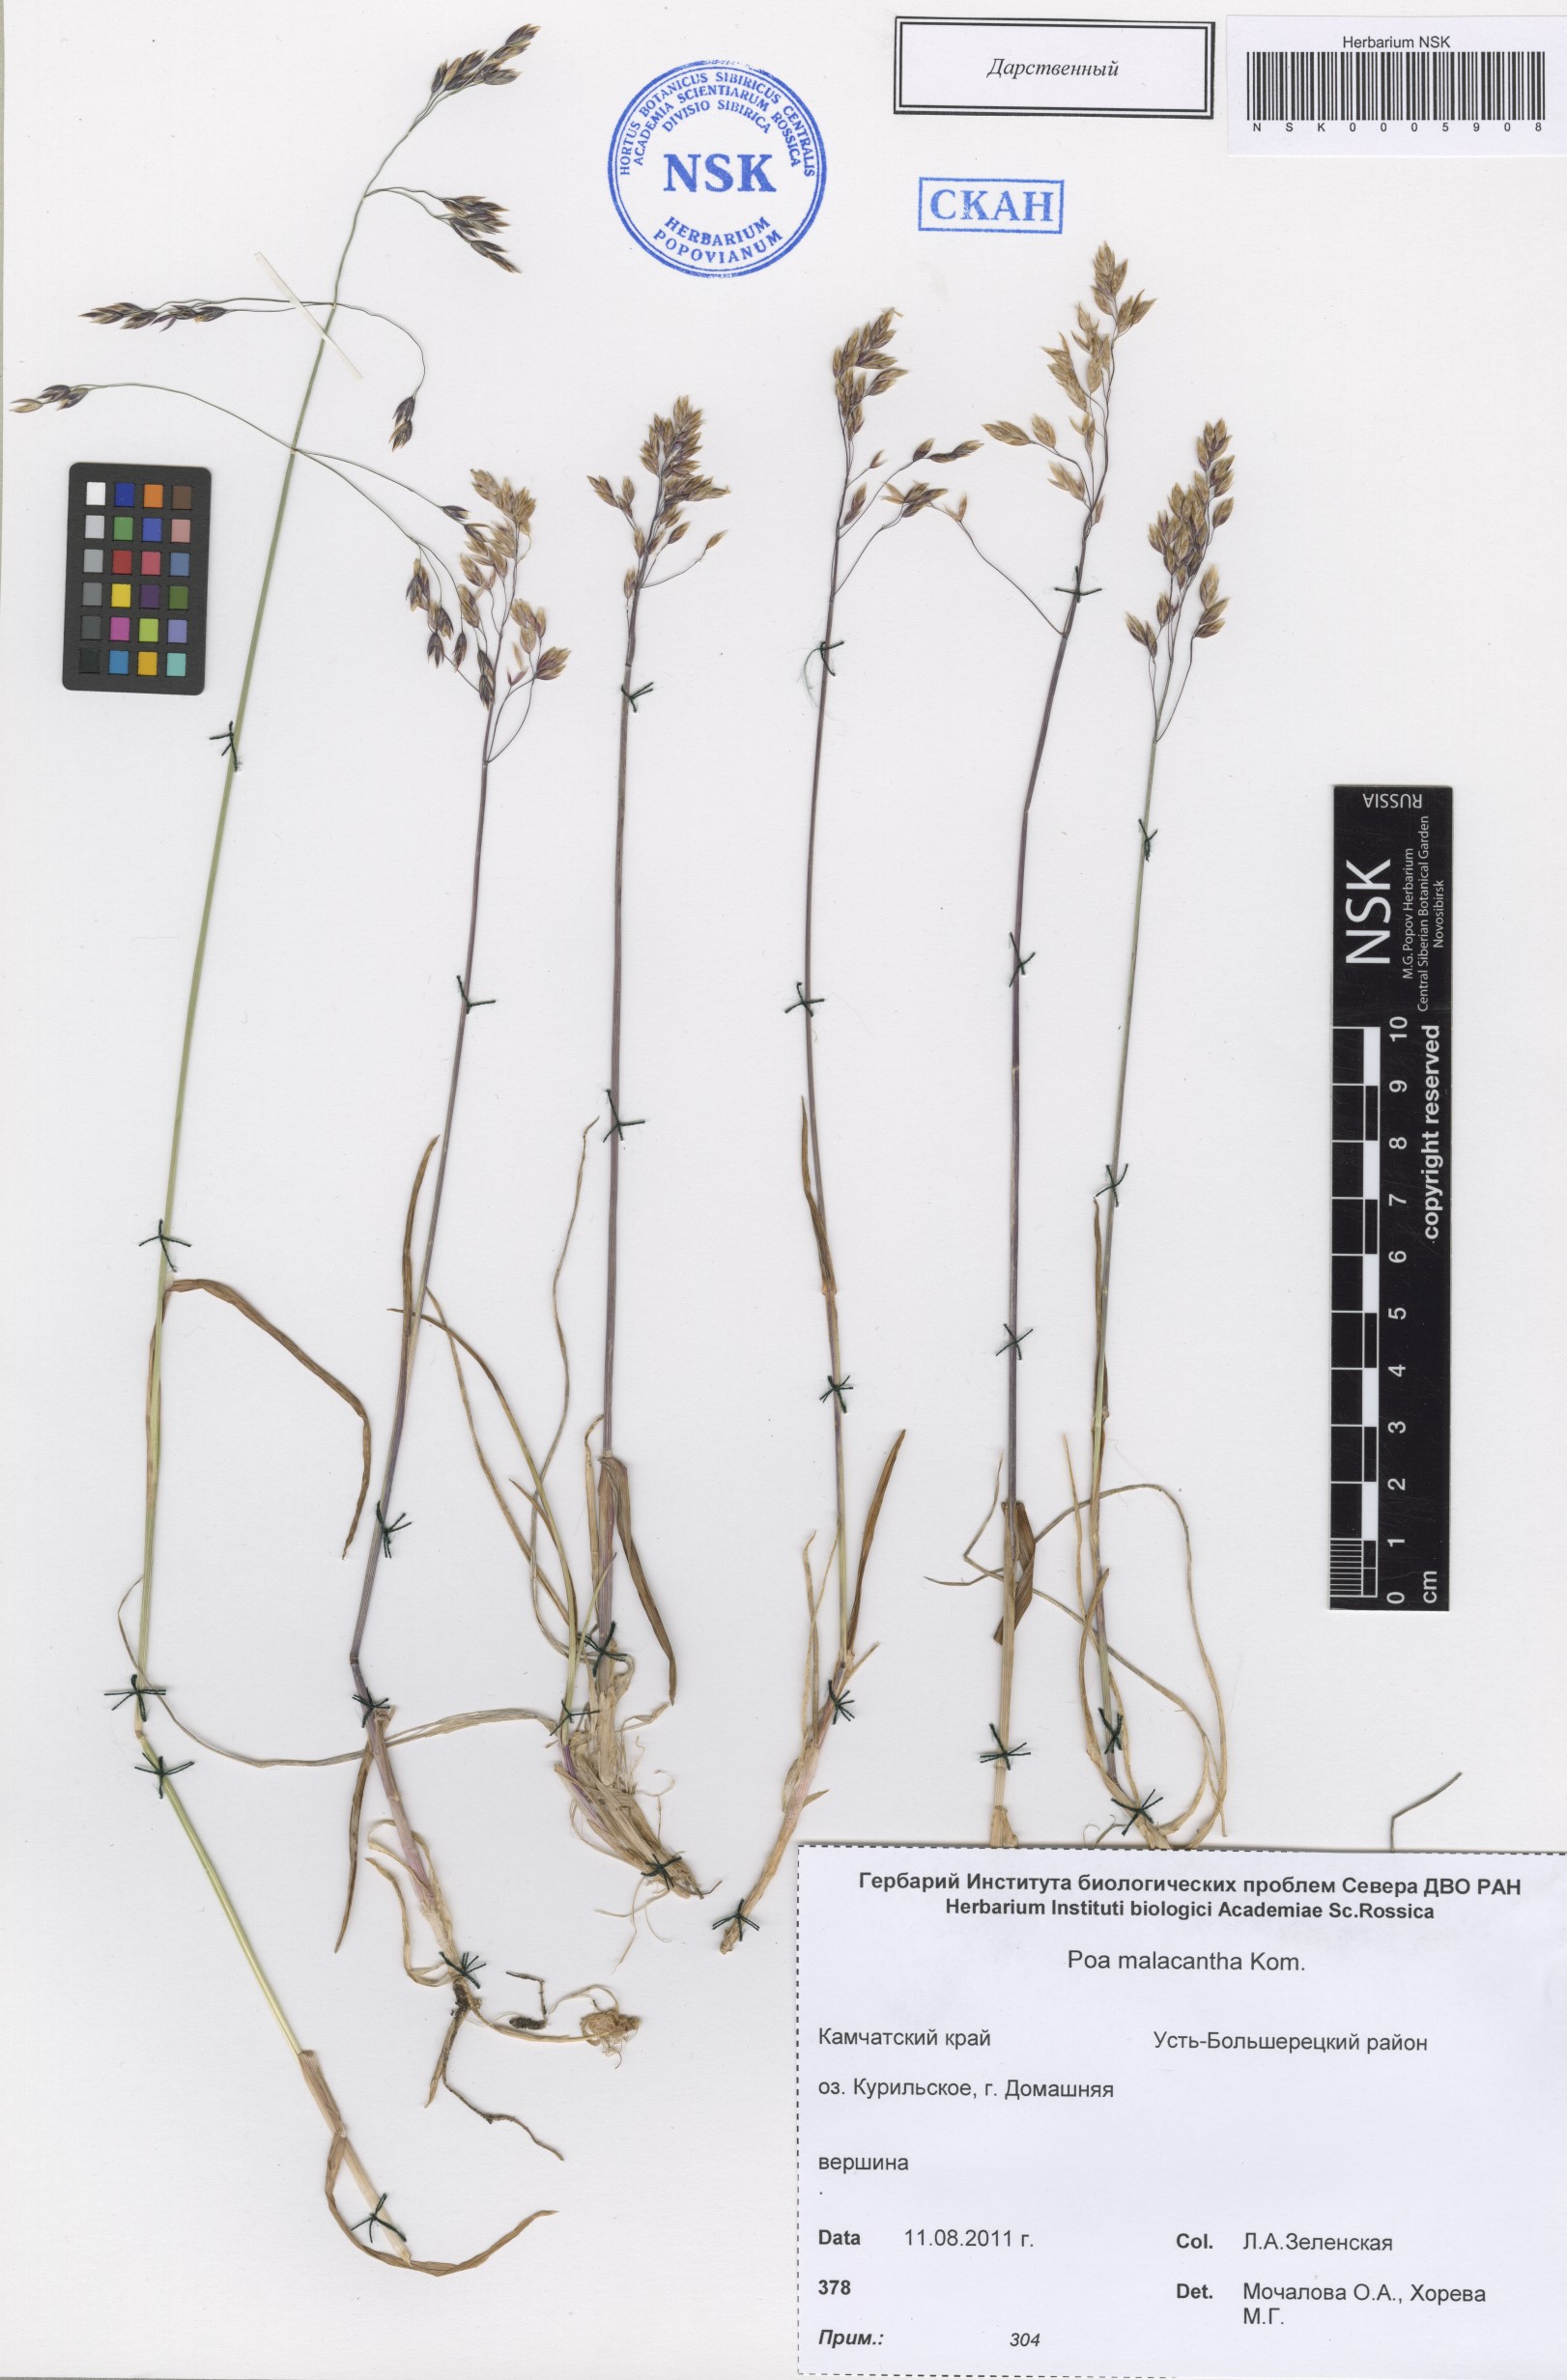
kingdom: Plantae
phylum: Tracheophyta
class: Liliopsida
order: Poales
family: Poaceae
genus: Poa
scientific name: Poa lanata
